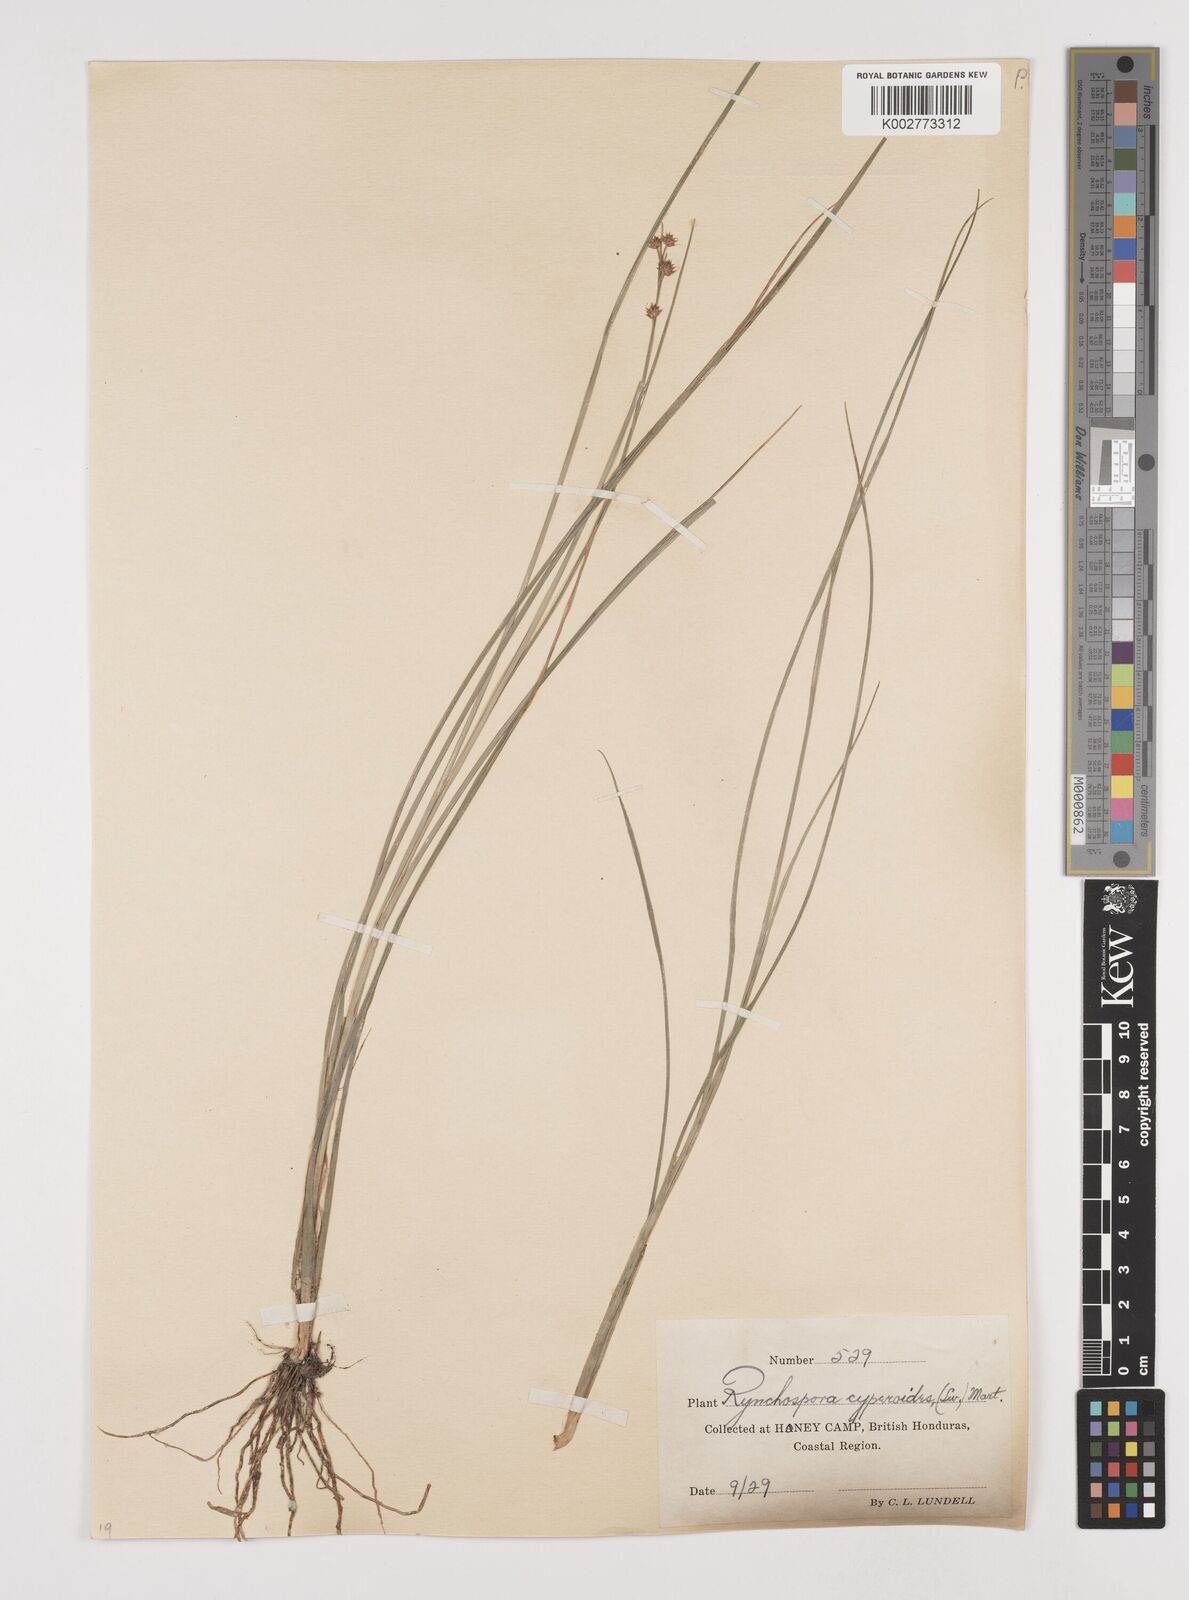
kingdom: Plantae
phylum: Tracheophyta
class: Liliopsida
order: Poales
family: Cyperaceae
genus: Rhynchospora
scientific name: Rhynchospora holoschoenoides
